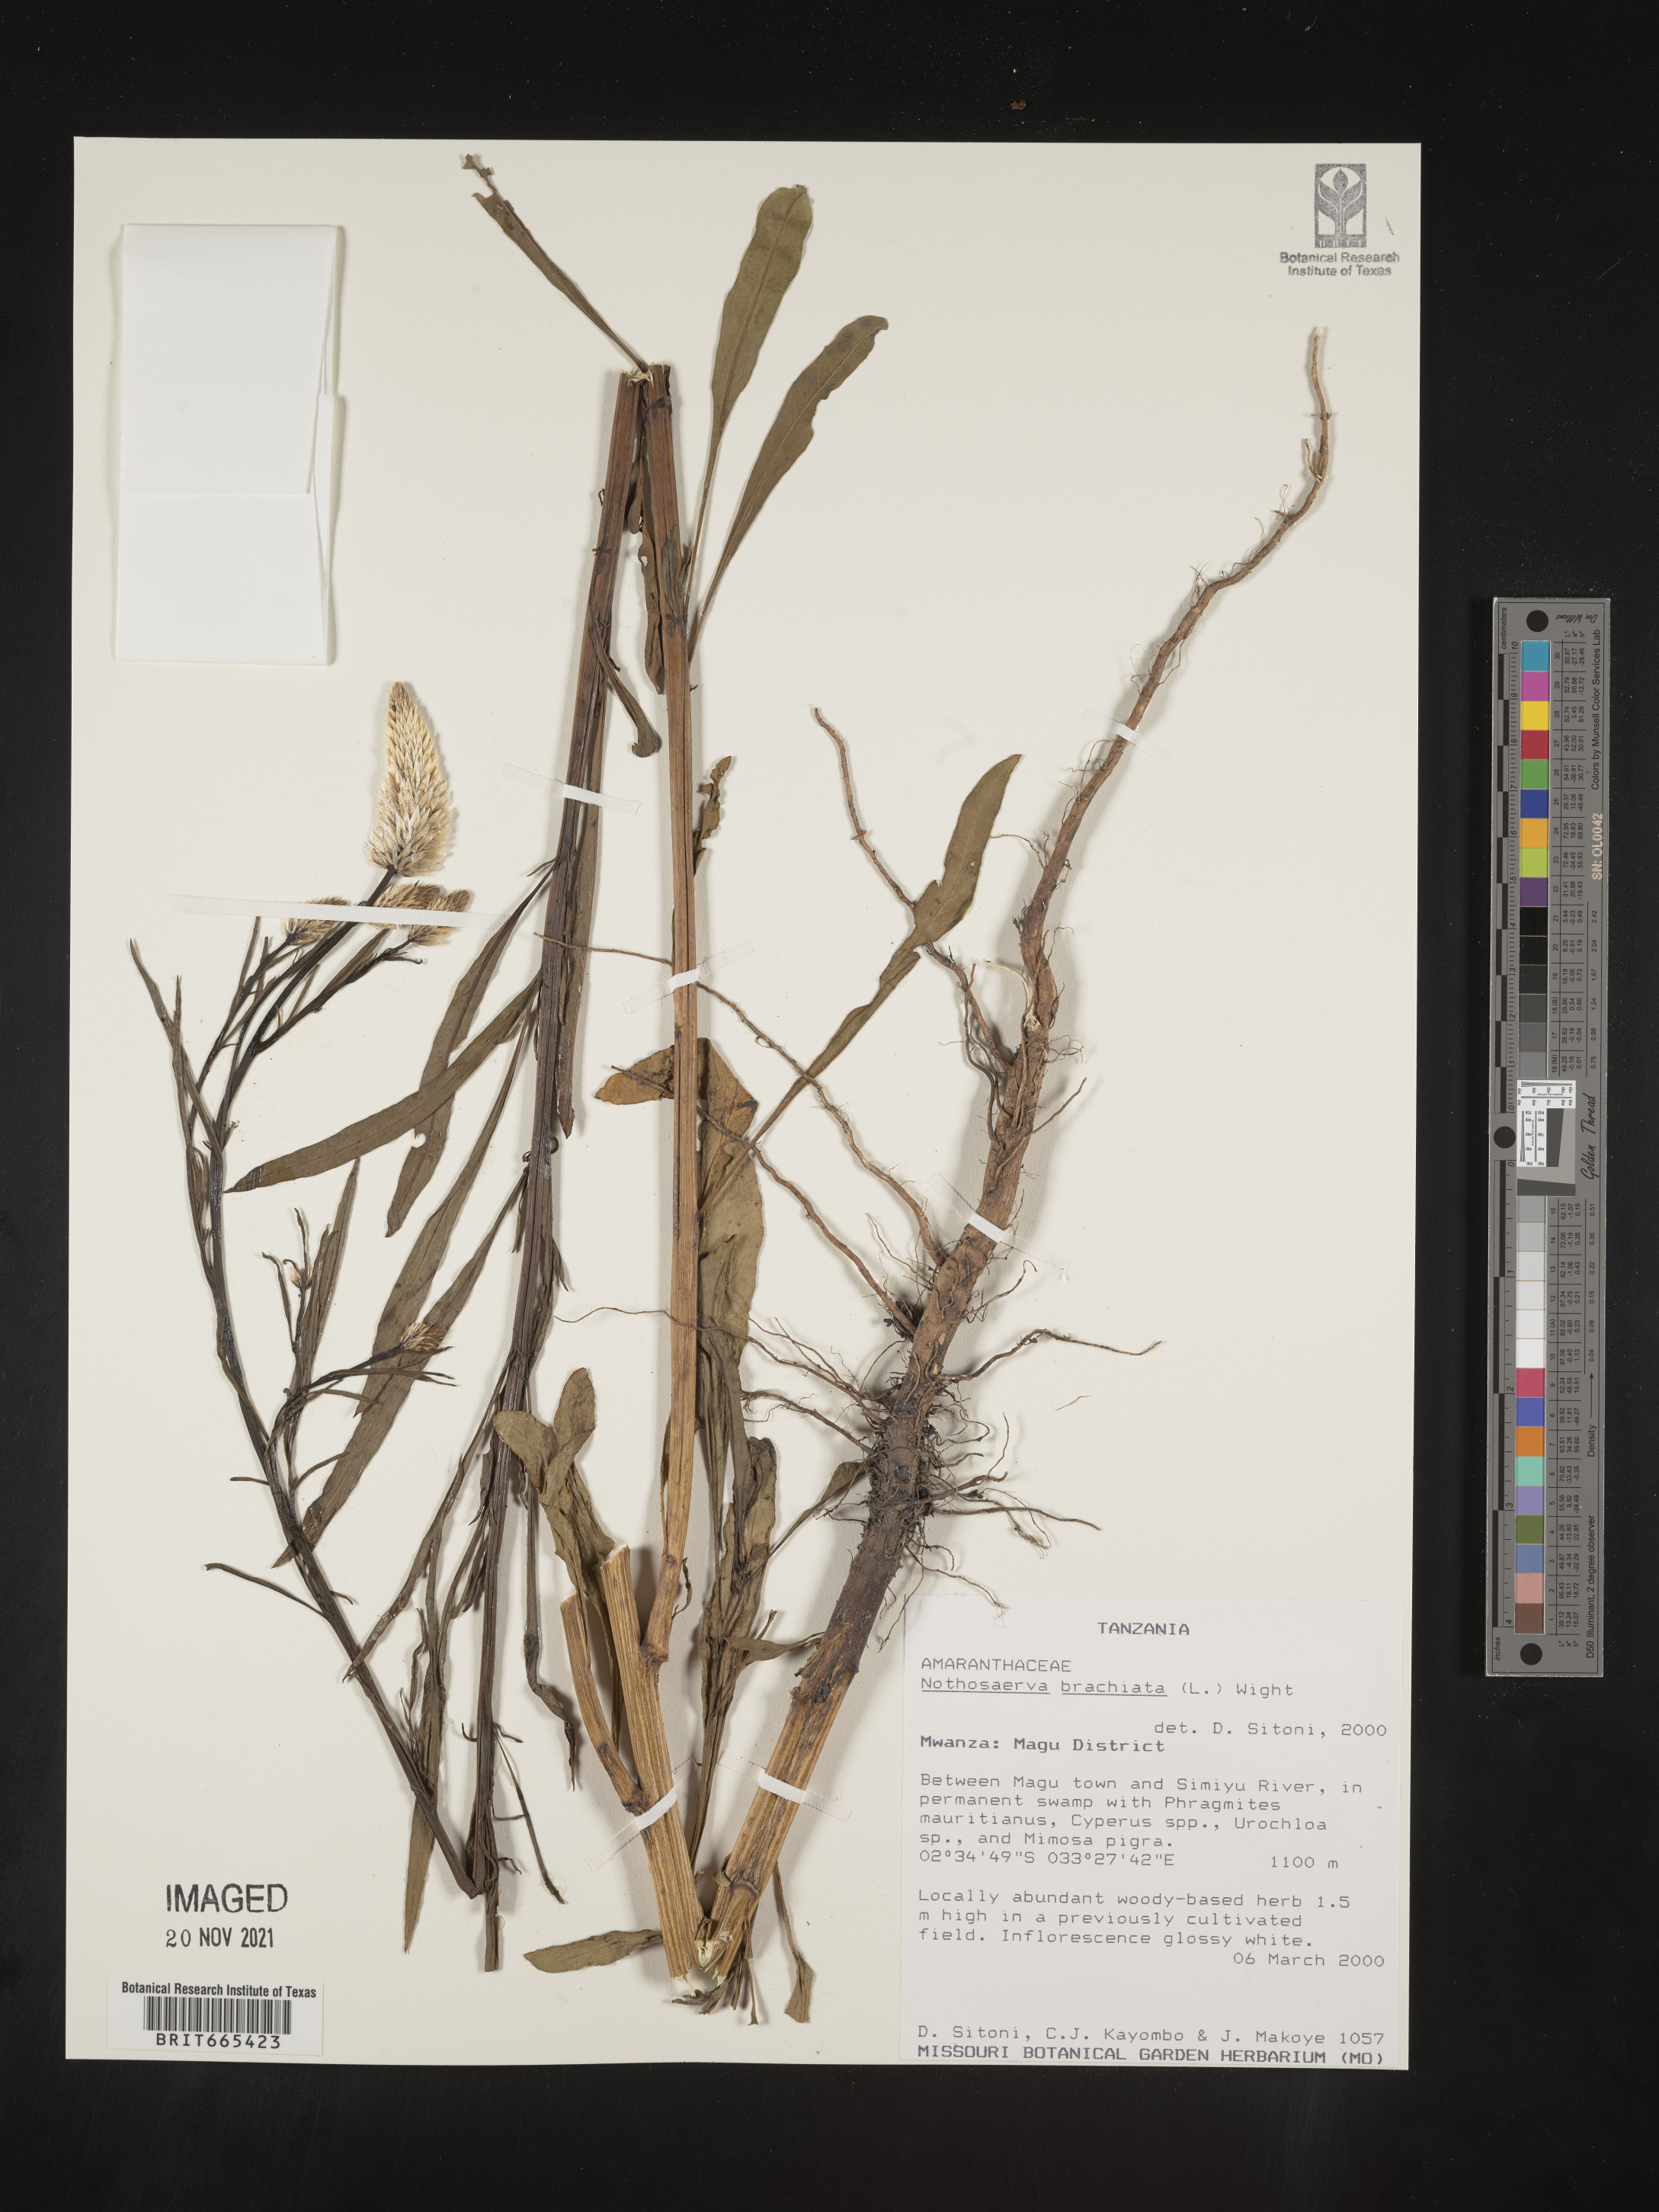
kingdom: Plantae
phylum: Tracheophyta
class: Magnoliopsida
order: Caryophyllales
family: Amaranthaceae
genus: Nothosaerva
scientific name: Nothosaerva
